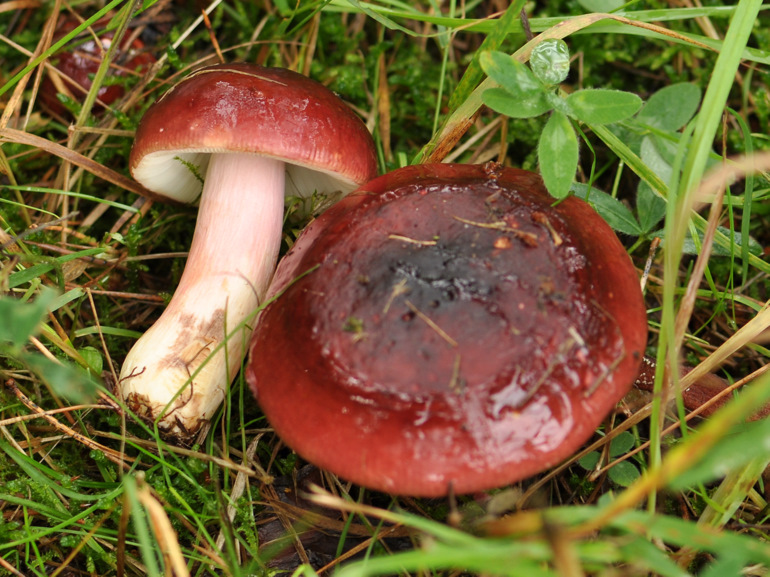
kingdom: Fungi
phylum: Basidiomycota
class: Agaricomycetes
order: Russulales
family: Russulaceae
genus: Russula
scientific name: Russula xerampelina
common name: hummer-skørhat
